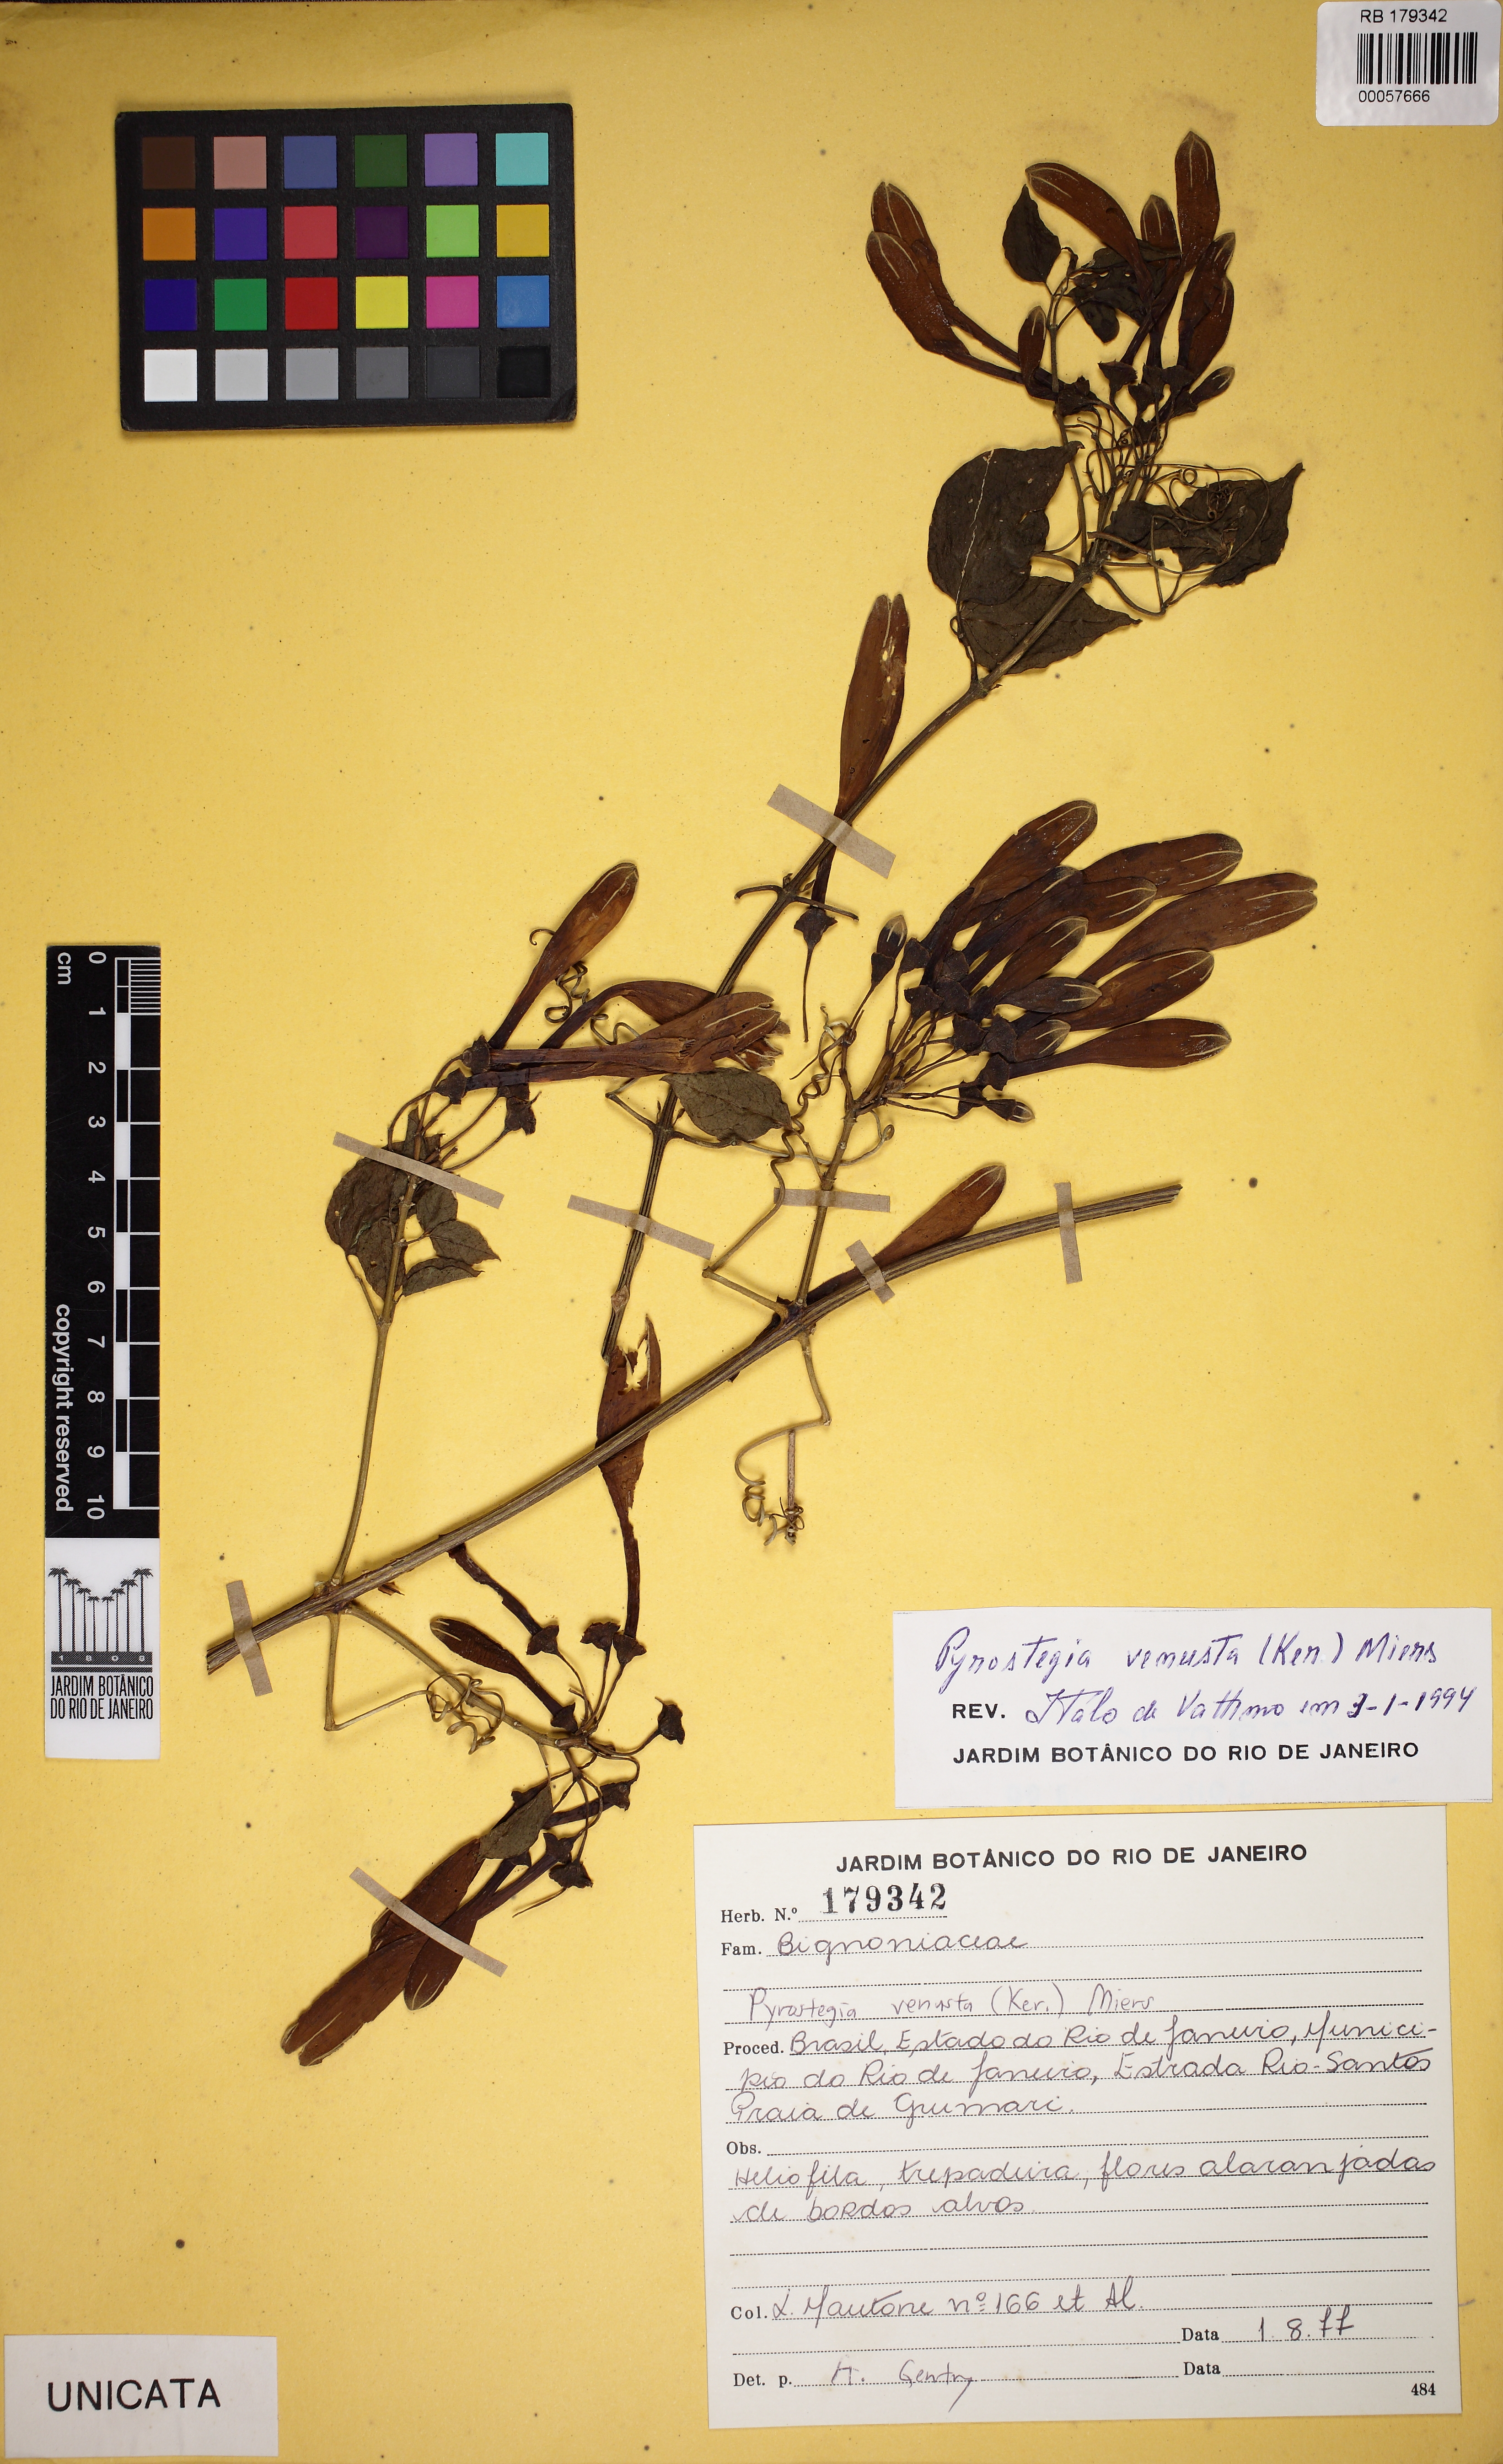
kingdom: Plantae
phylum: Tracheophyta
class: Magnoliopsida
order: Lamiales
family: Bignoniaceae
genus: Pyrostegia
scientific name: Pyrostegia venusta
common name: Flamevine
